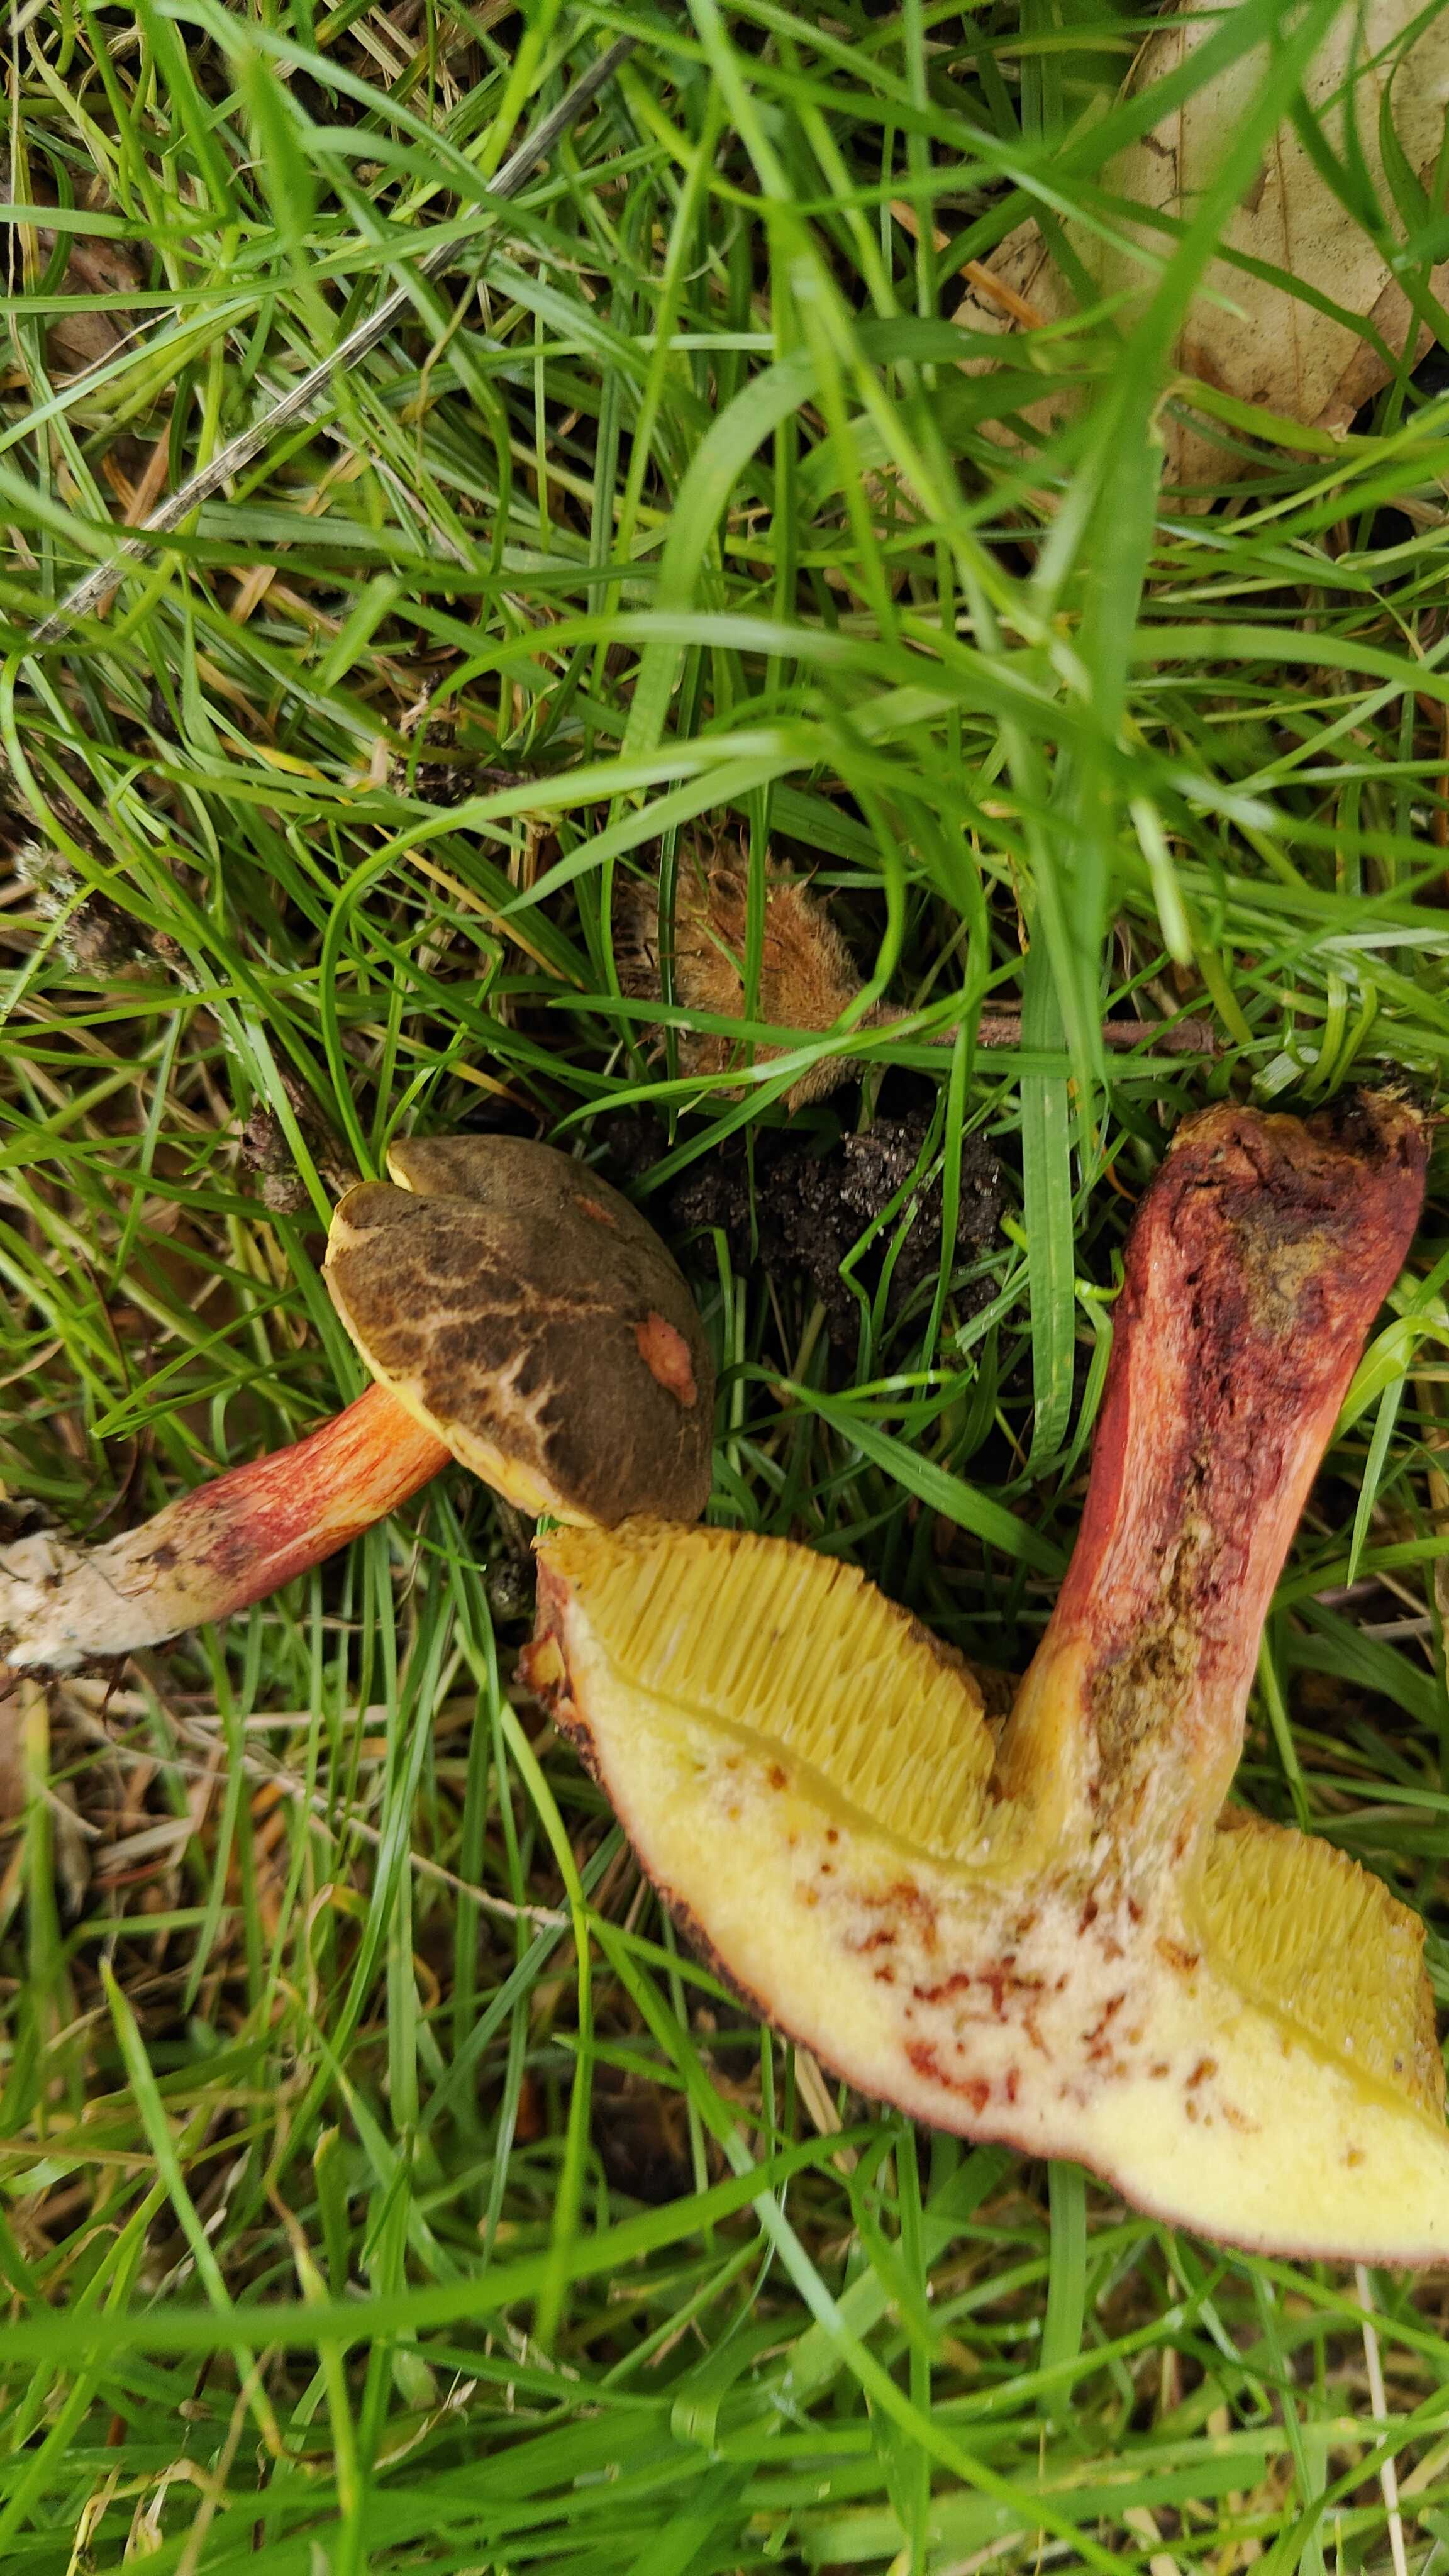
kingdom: Fungi
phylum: Basidiomycota
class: Agaricomycetes
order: Boletales
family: Boletaceae
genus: Xerocomellus
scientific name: Xerocomellus chrysenteron
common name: rødsprukken rørhat
